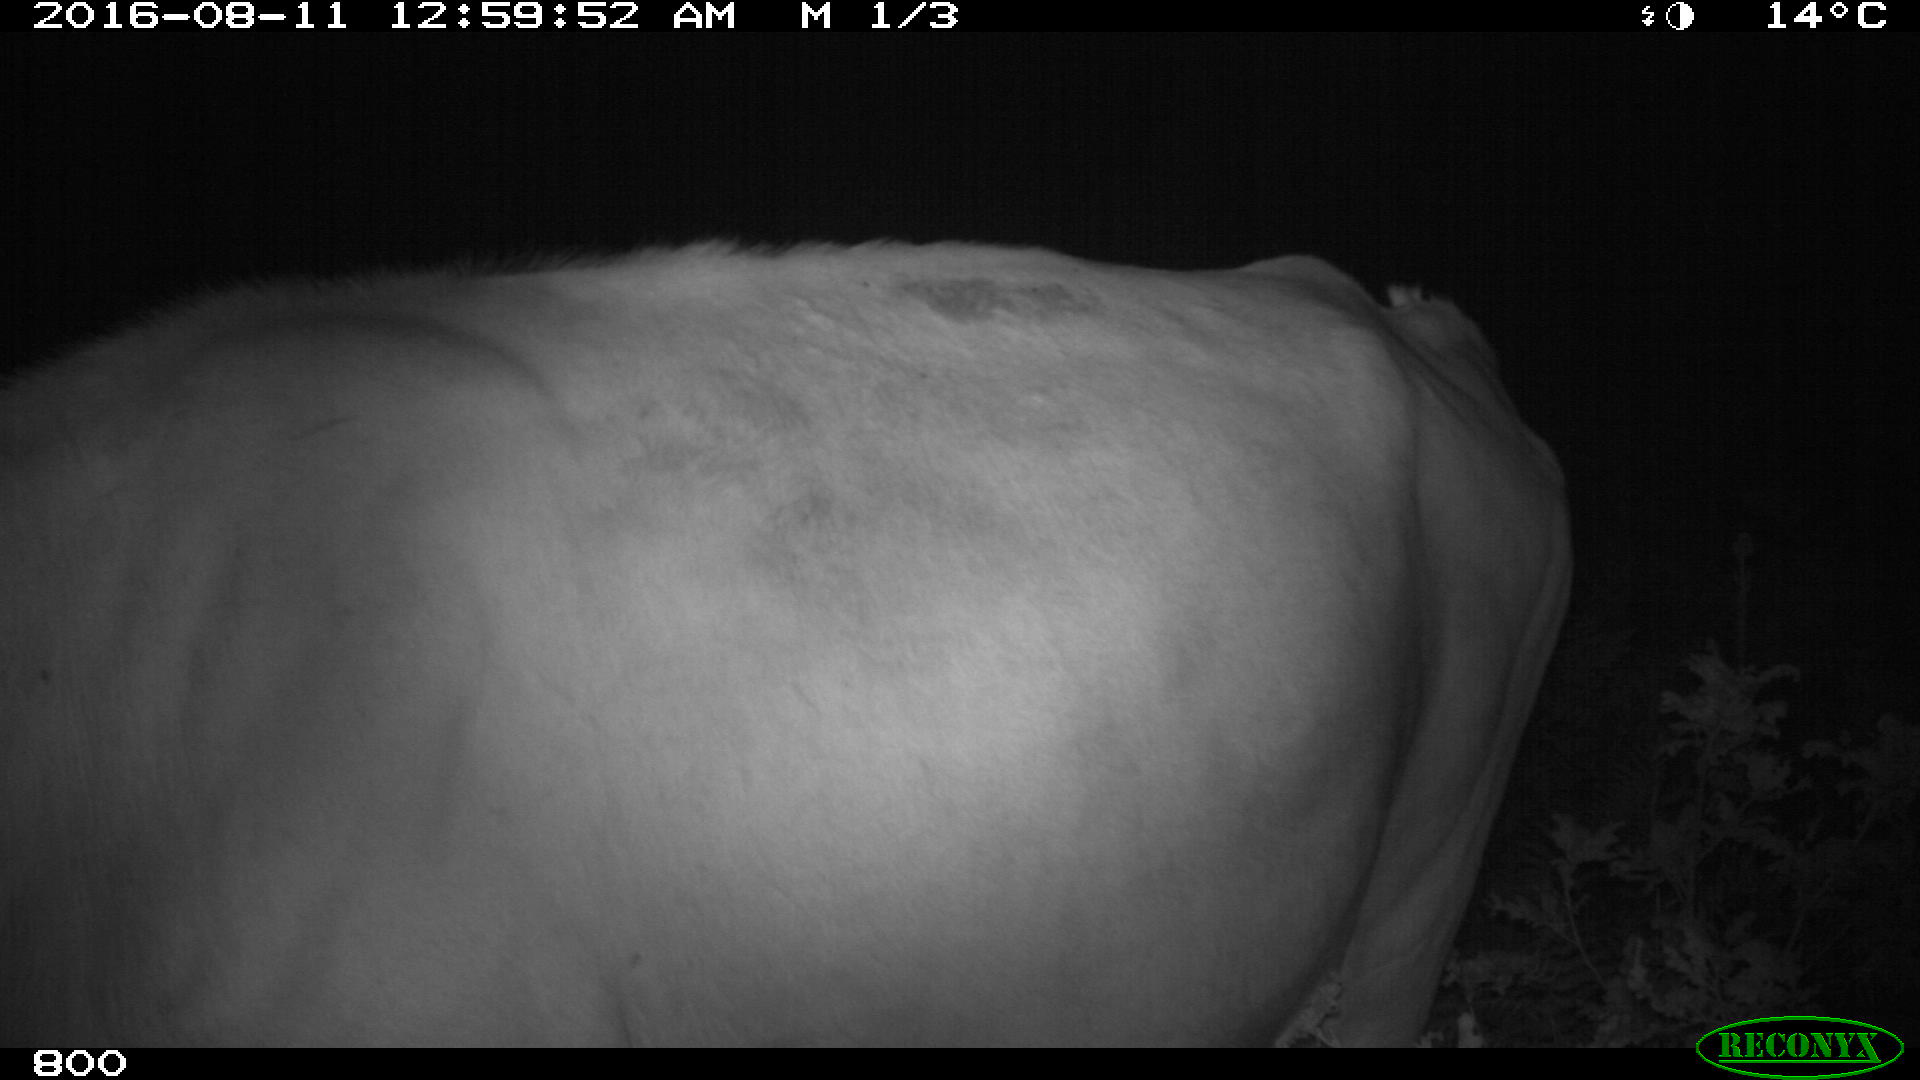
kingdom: Animalia
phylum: Chordata
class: Mammalia
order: Artiodactyla
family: Bovidae
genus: Bos
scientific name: Bos taurus
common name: Domesticated cattle
